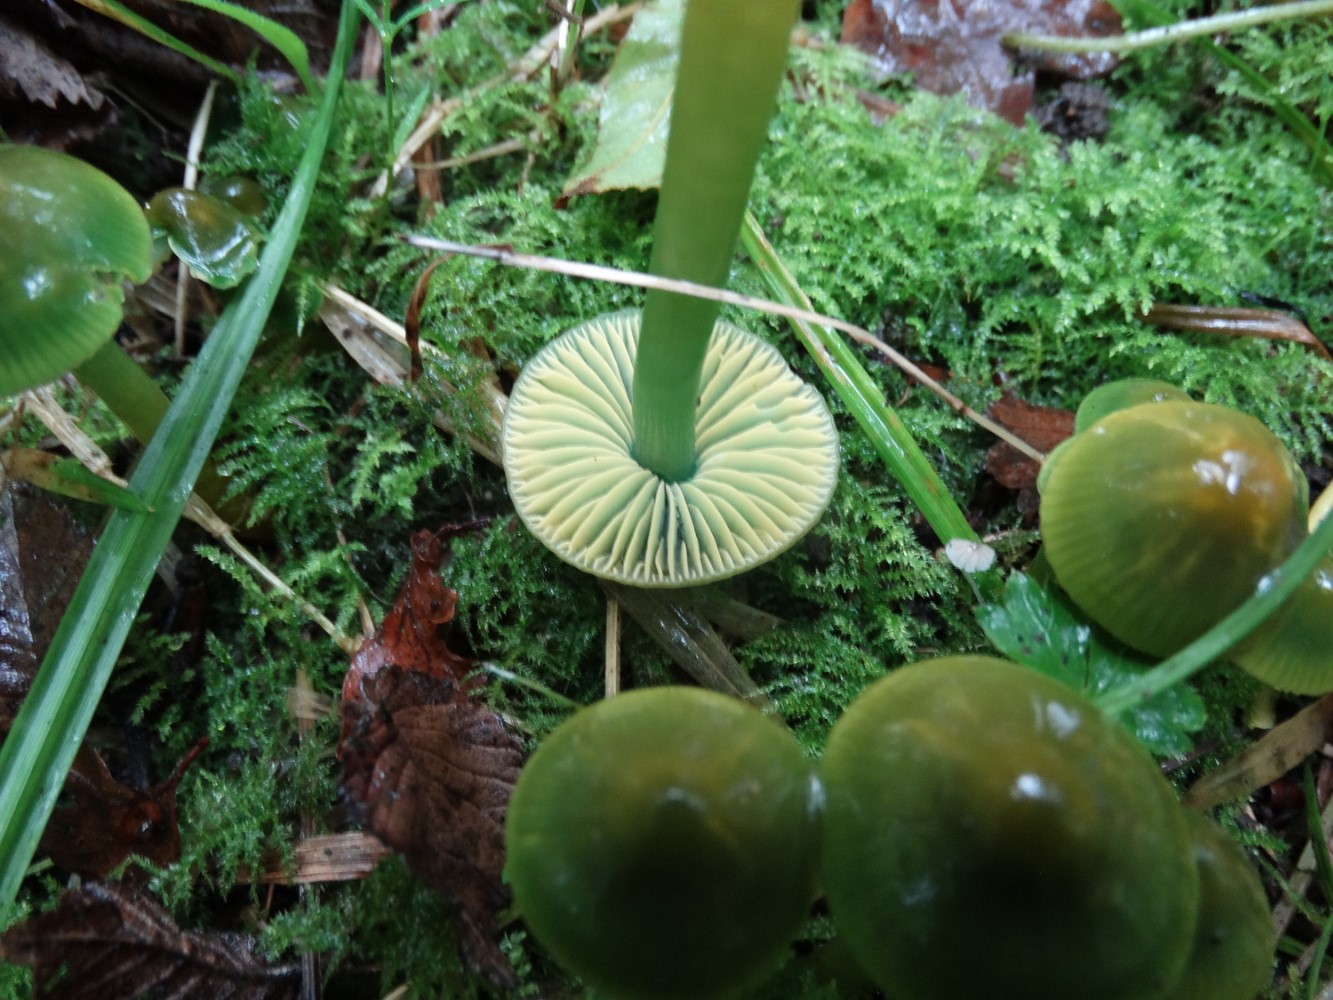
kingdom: Fungi
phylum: Basidiomycota
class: Agaricomycetes
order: Agaricales
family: Hygrophoraceae
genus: Gliophorus
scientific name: Gliophorus psittacinus
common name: papegøje-vokshat
